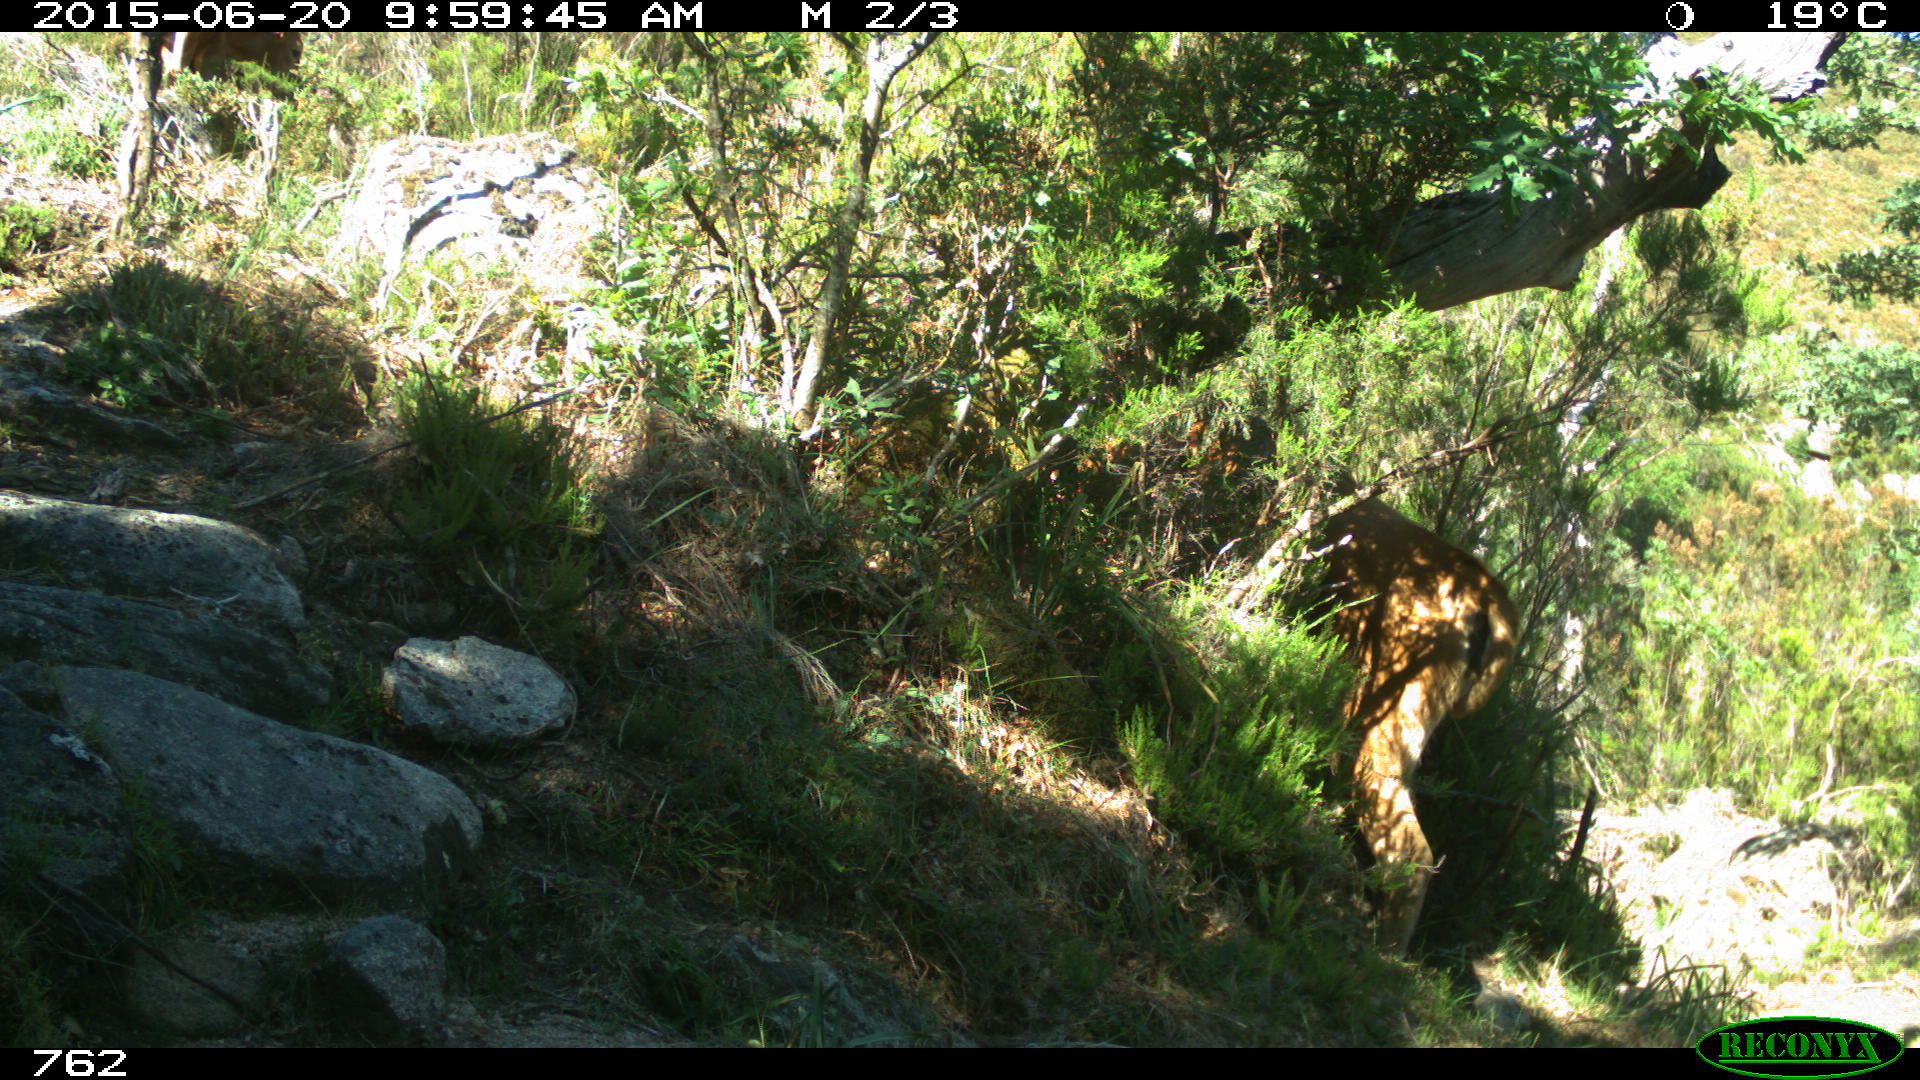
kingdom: Animalia
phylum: Chordata
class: Mammalia
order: Artiodactyla
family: Bovidae
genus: Bos
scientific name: Bos taurus
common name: Domesticated cattle
